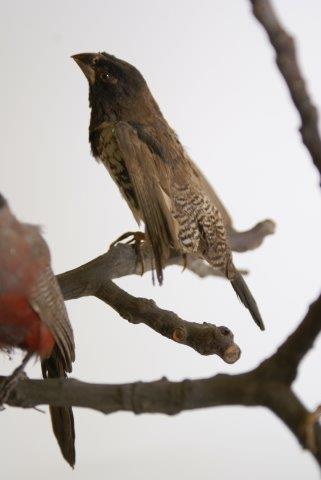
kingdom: Animalia
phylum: Chordata
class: Aves
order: Passeriformes
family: Estrildidae
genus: Lonchura
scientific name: Lonchura cucullata
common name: Bronze mannikin
